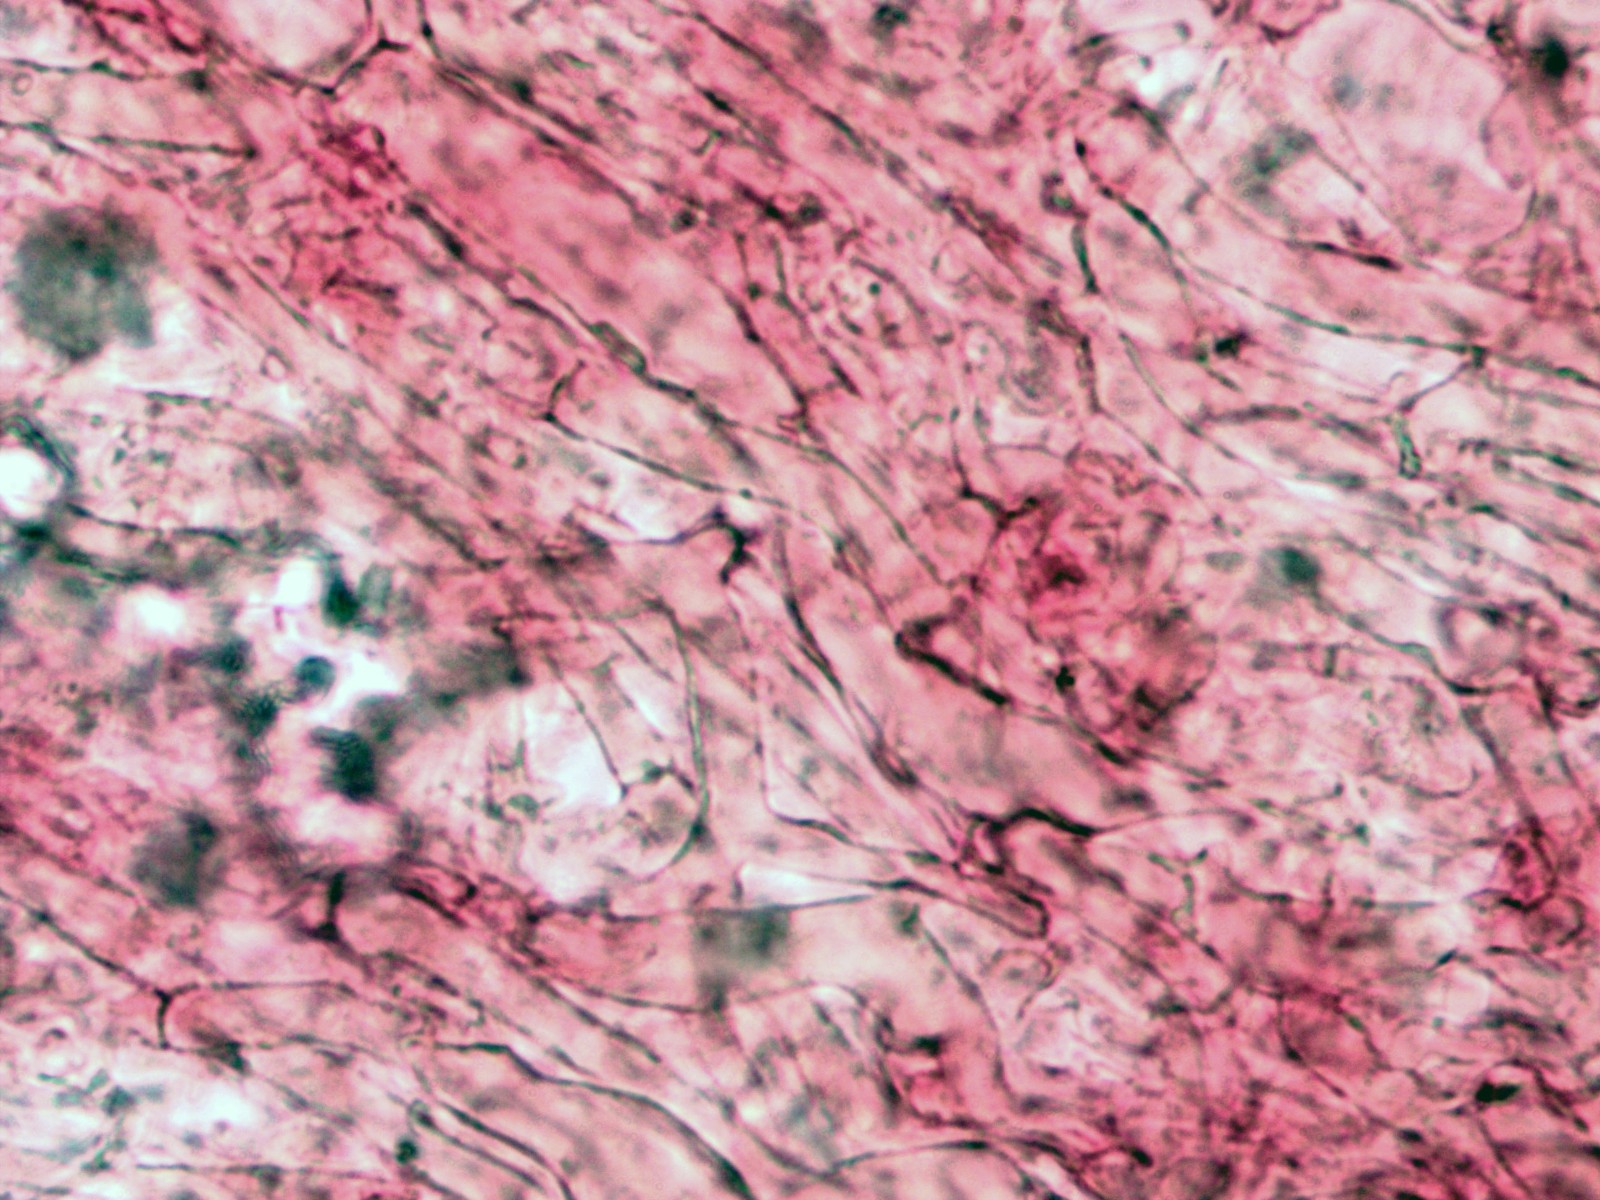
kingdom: Fungi
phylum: Basidiomycota
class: Agaricomycetes
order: Agaricales
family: Mycenaceae
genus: Mycena
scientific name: Mycena chlorantha
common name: klit-huesvamp
